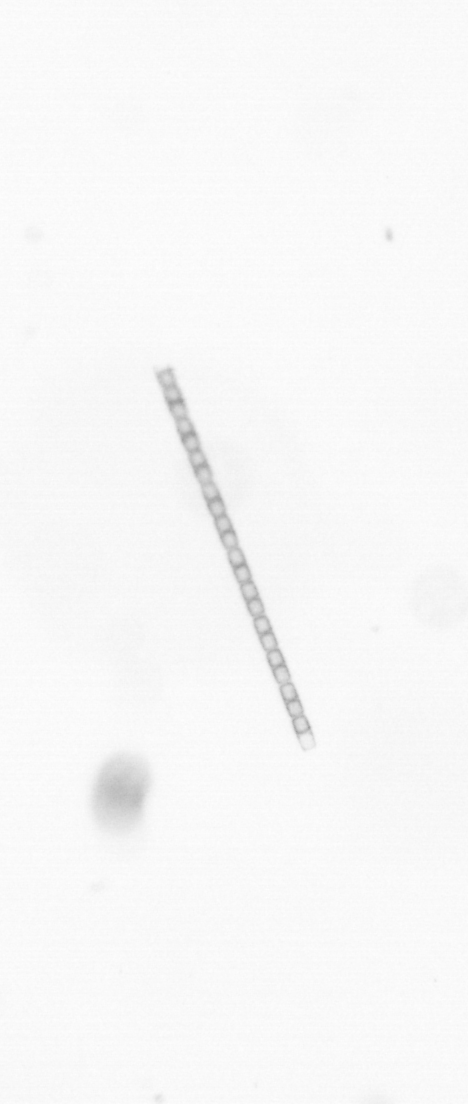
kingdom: Chromista
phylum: Ochrophyta
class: Bacillariophyceae
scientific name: Bacillariophyceae
